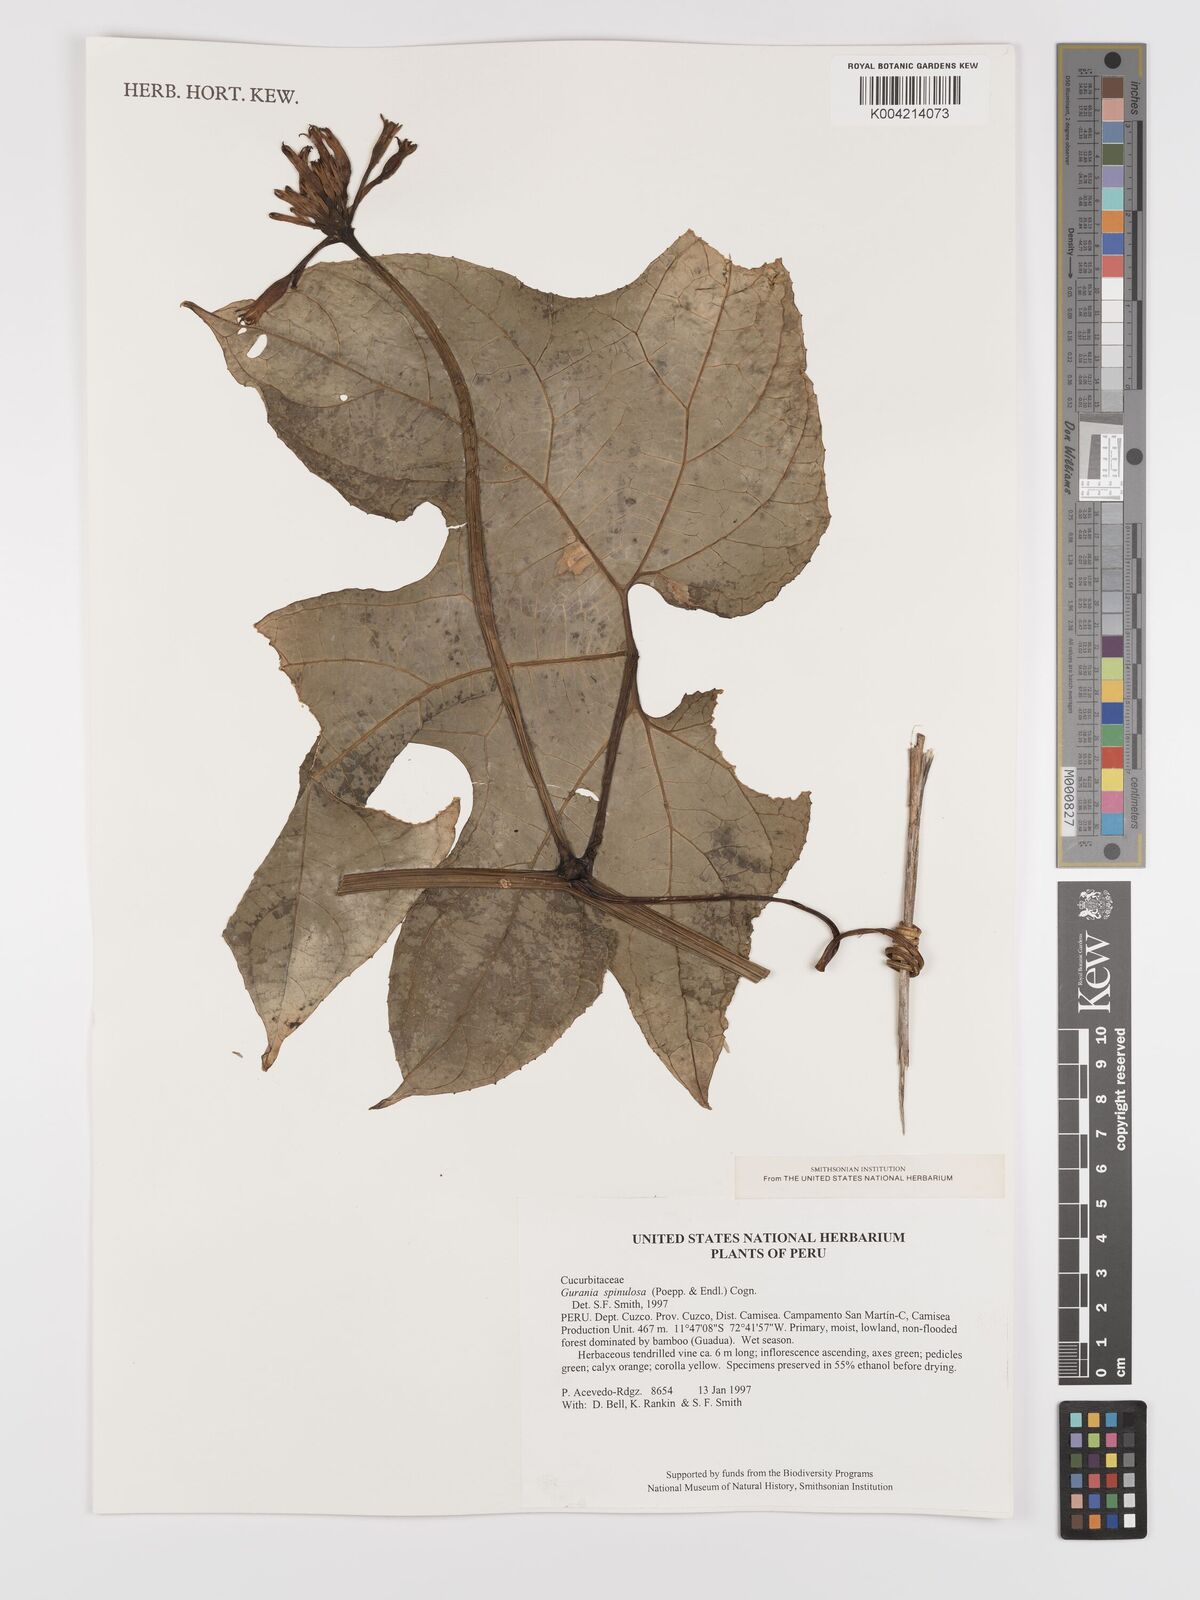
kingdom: Plantae
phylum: Tracheophyta
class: Magnoliopsida
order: Cucurbitales
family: Cucurbitaceae
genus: Gurania
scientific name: Gurania lobata
